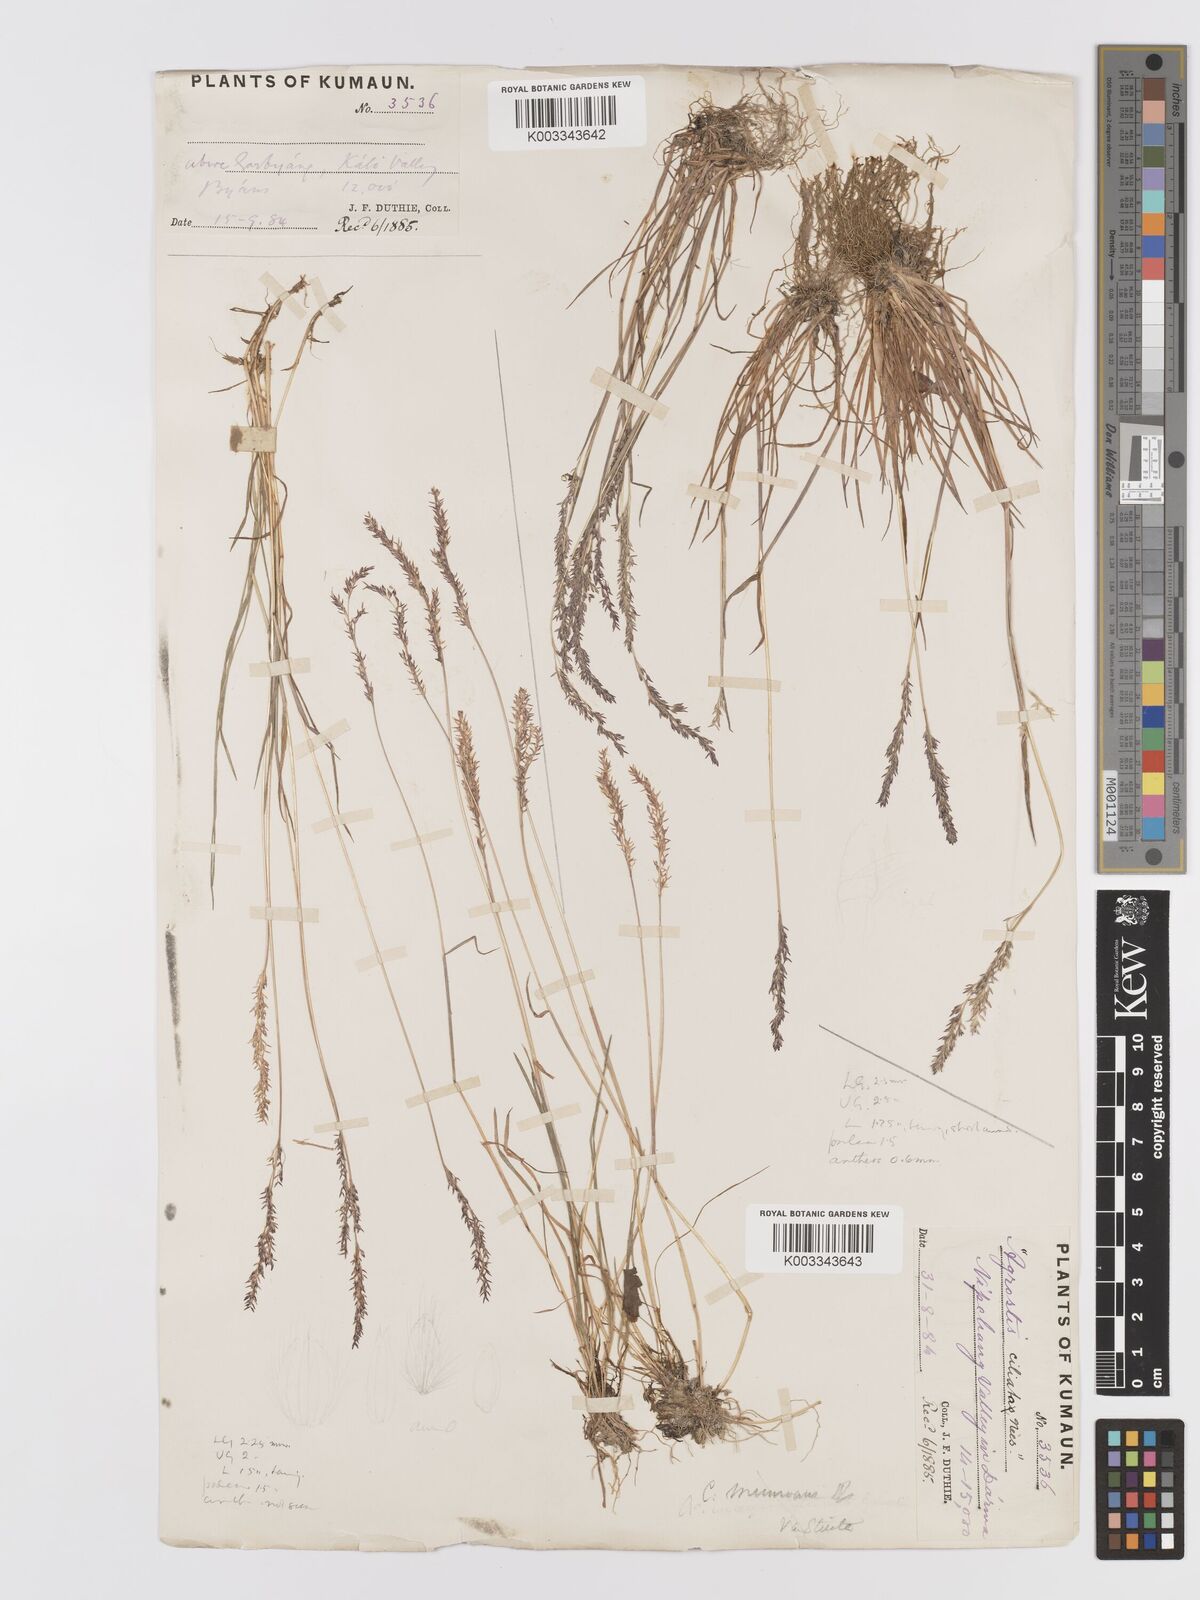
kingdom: Plantae
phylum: Tracheophyta
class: Liliopsida
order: Poales
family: Poaceae
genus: Agrostis
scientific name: Agrostis munroana
